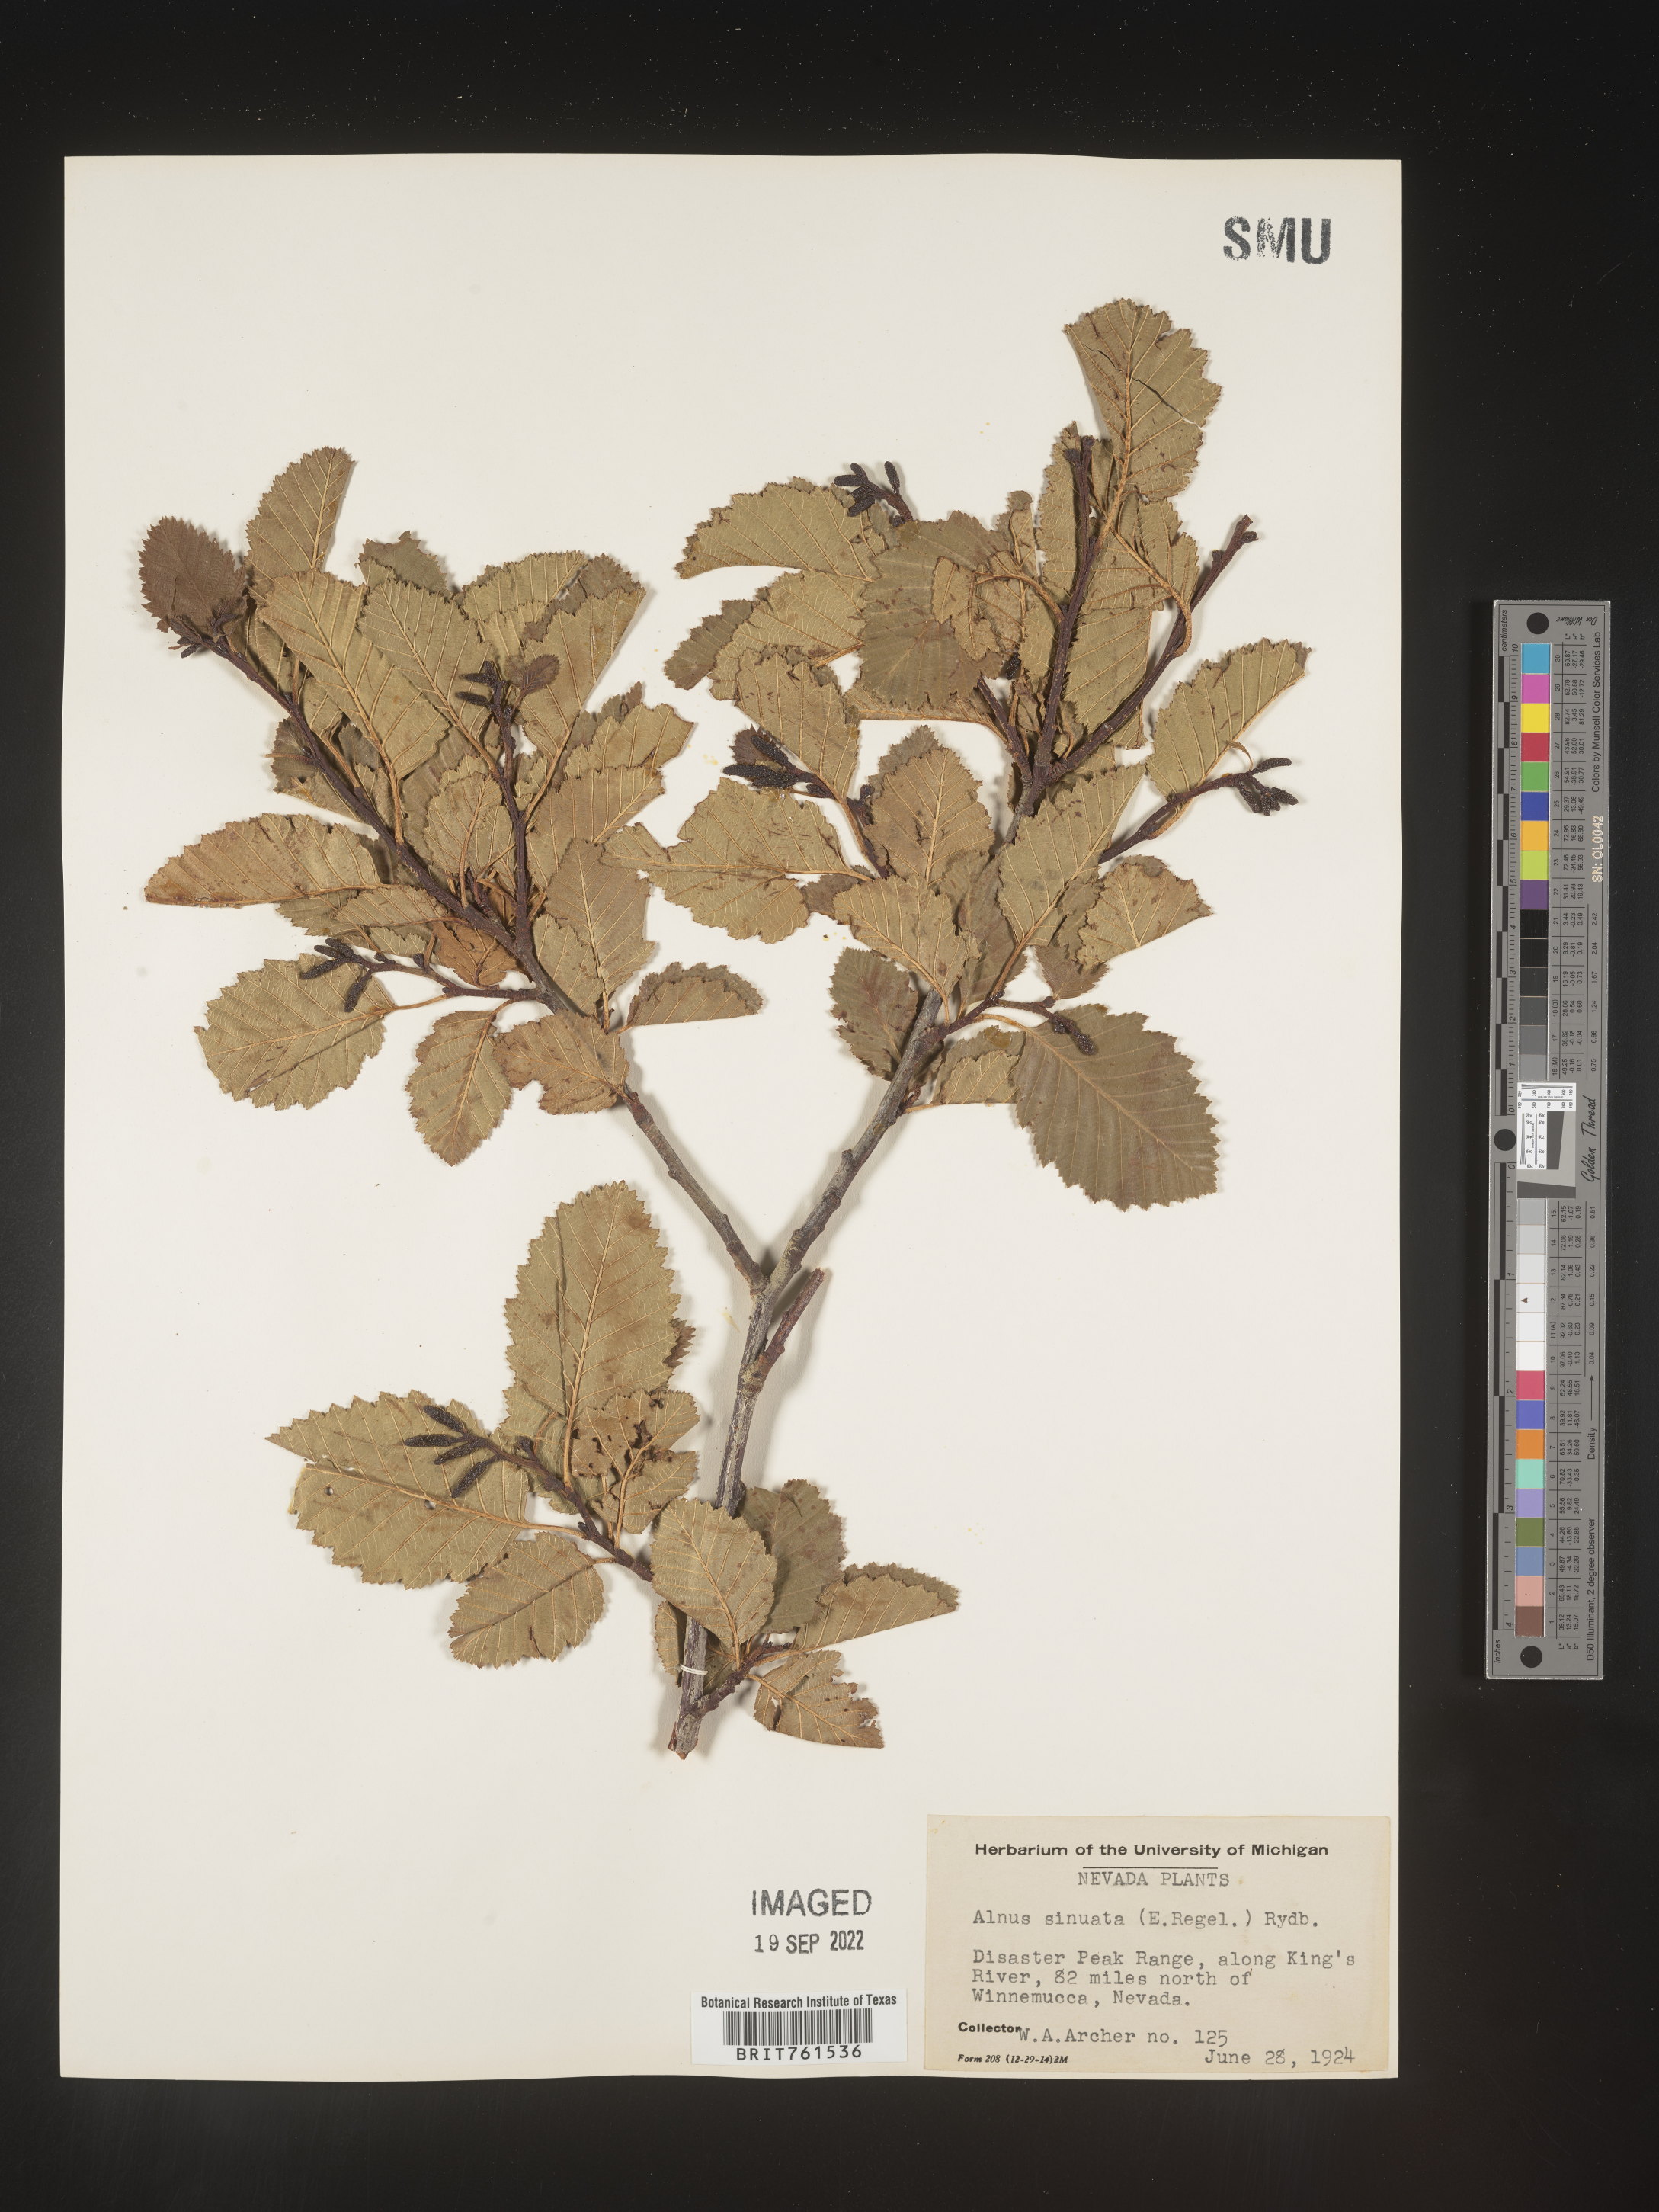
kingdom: Plantae
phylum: Tracheophyta
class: Magnoliopsida
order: Fagales
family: Betulaceae
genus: Alnus
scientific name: Alnus alnobetula
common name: Green alder
